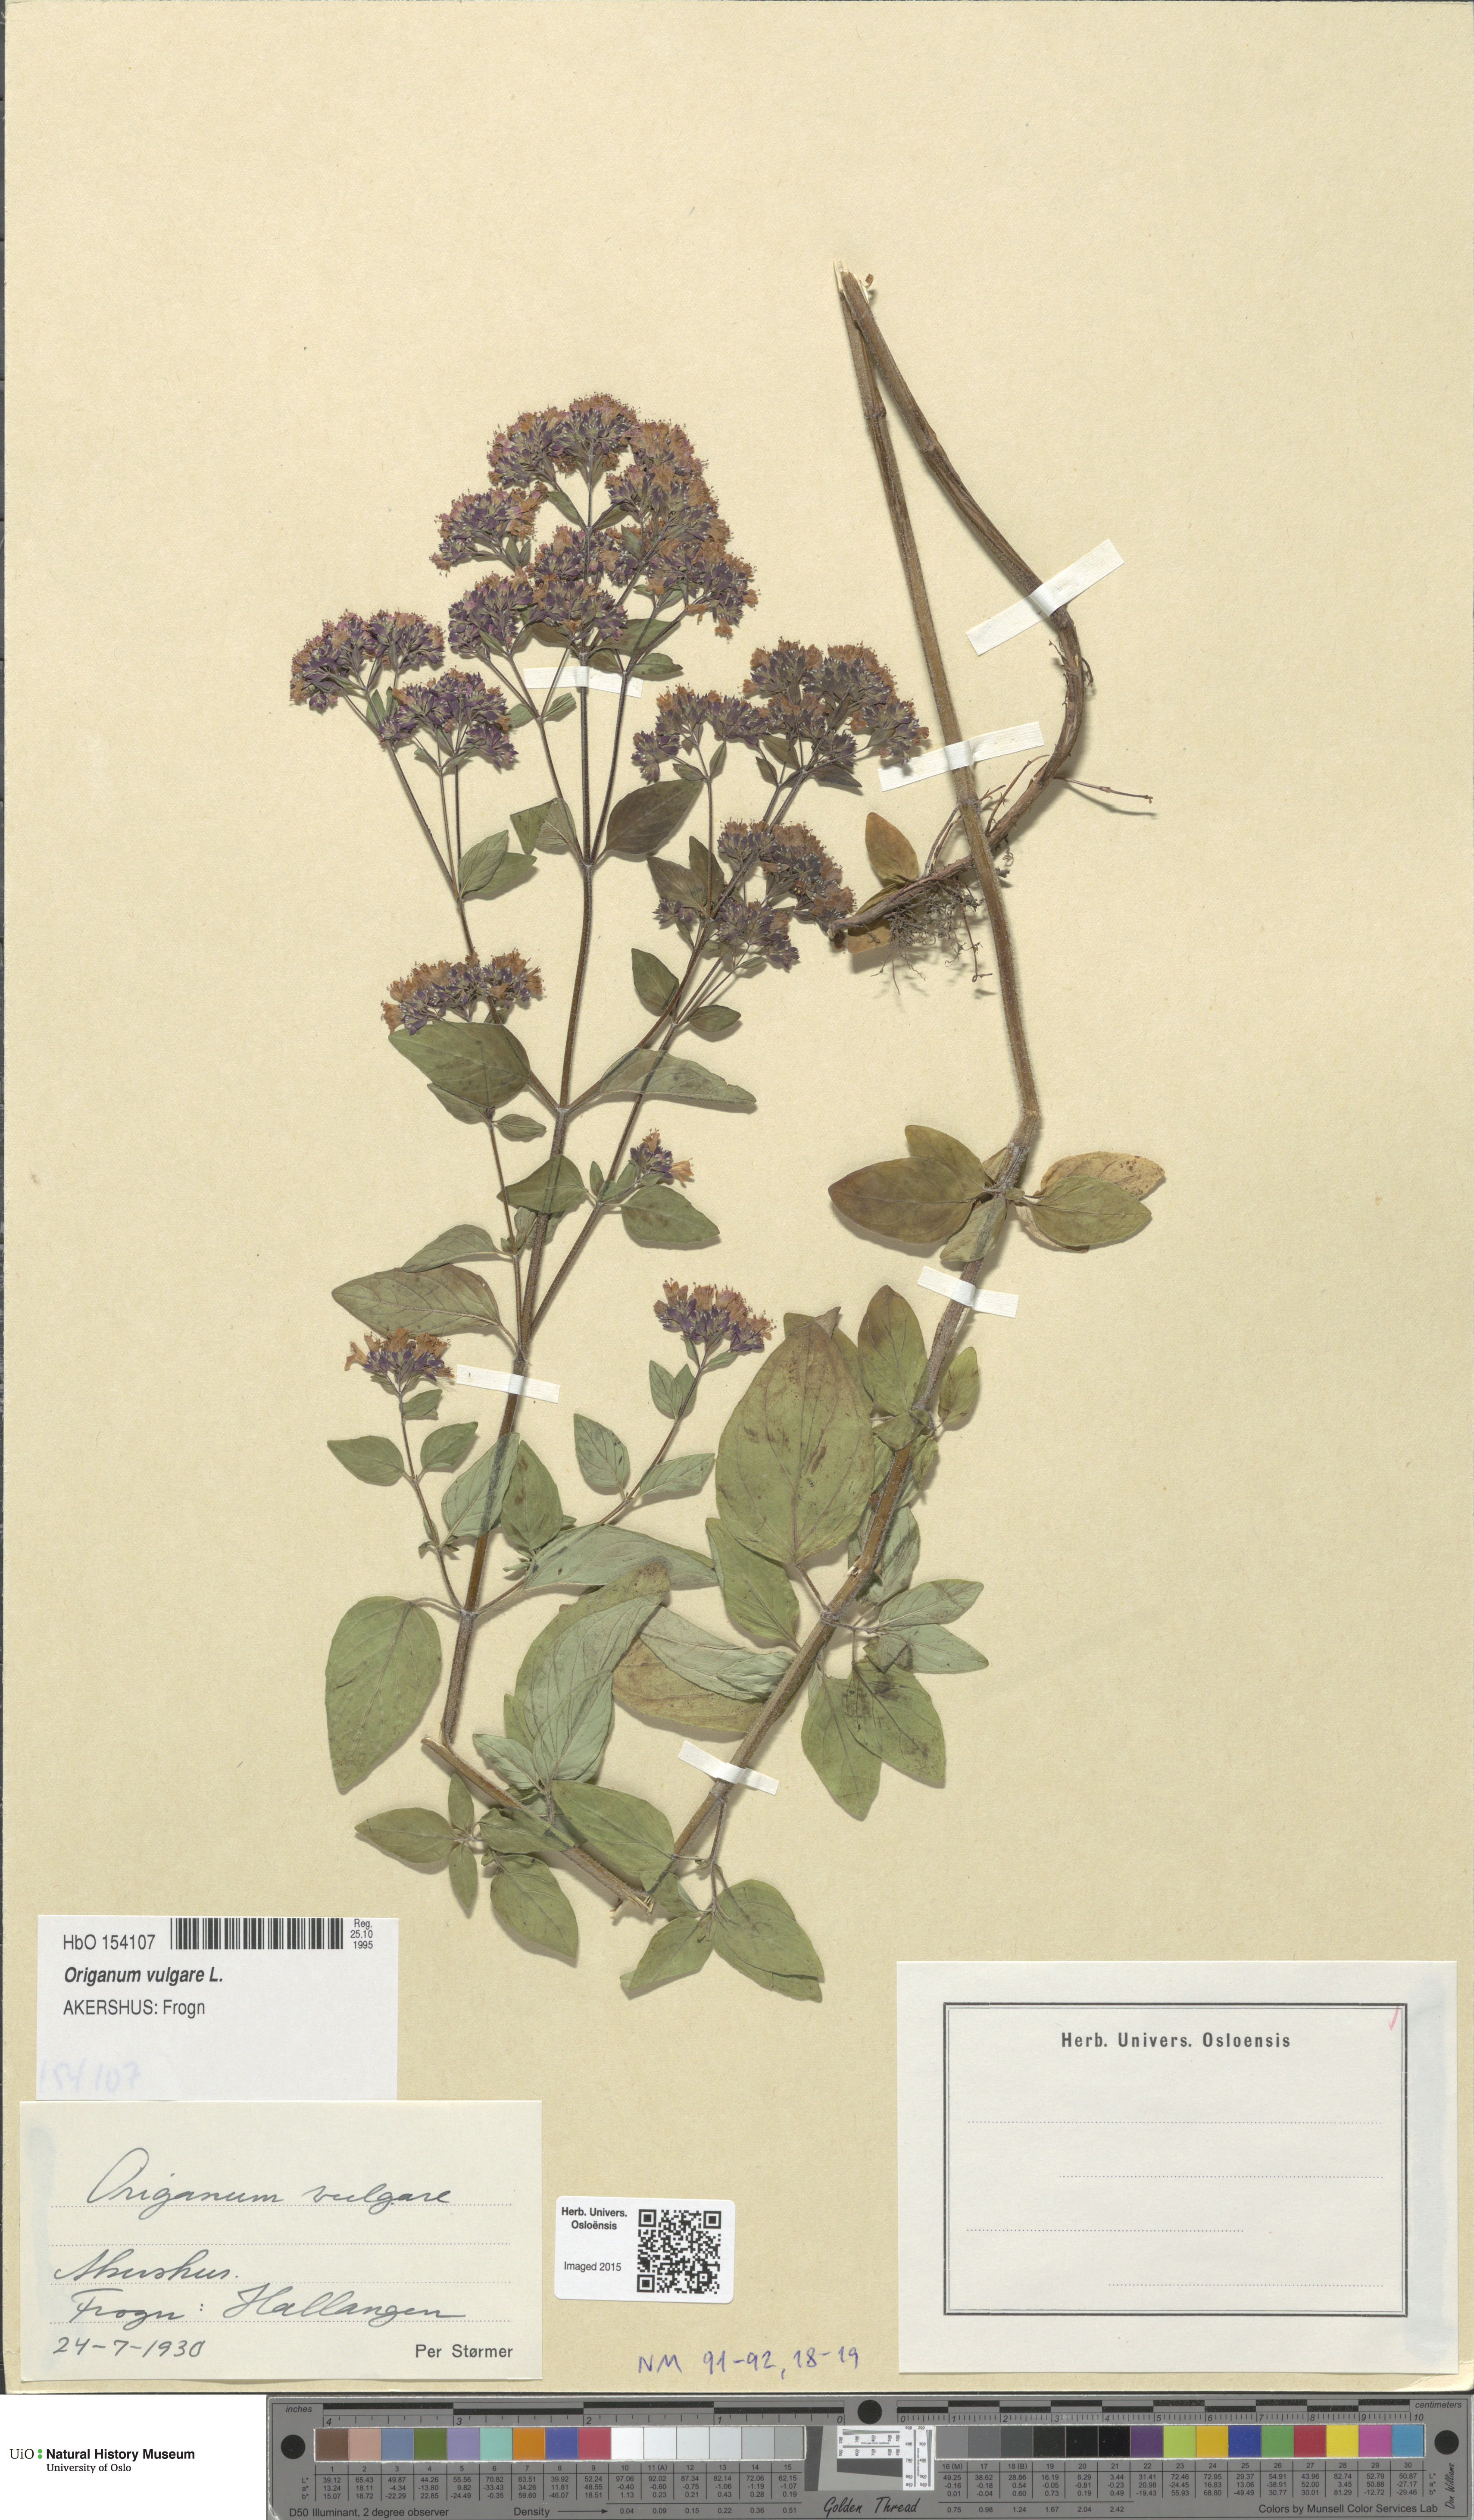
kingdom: Plantae
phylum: Tracheophyta
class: Magnoliopsida
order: Lamiales
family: Lamiaceae
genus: Origanum
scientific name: Origanum vulgare
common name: Wild marjoram
